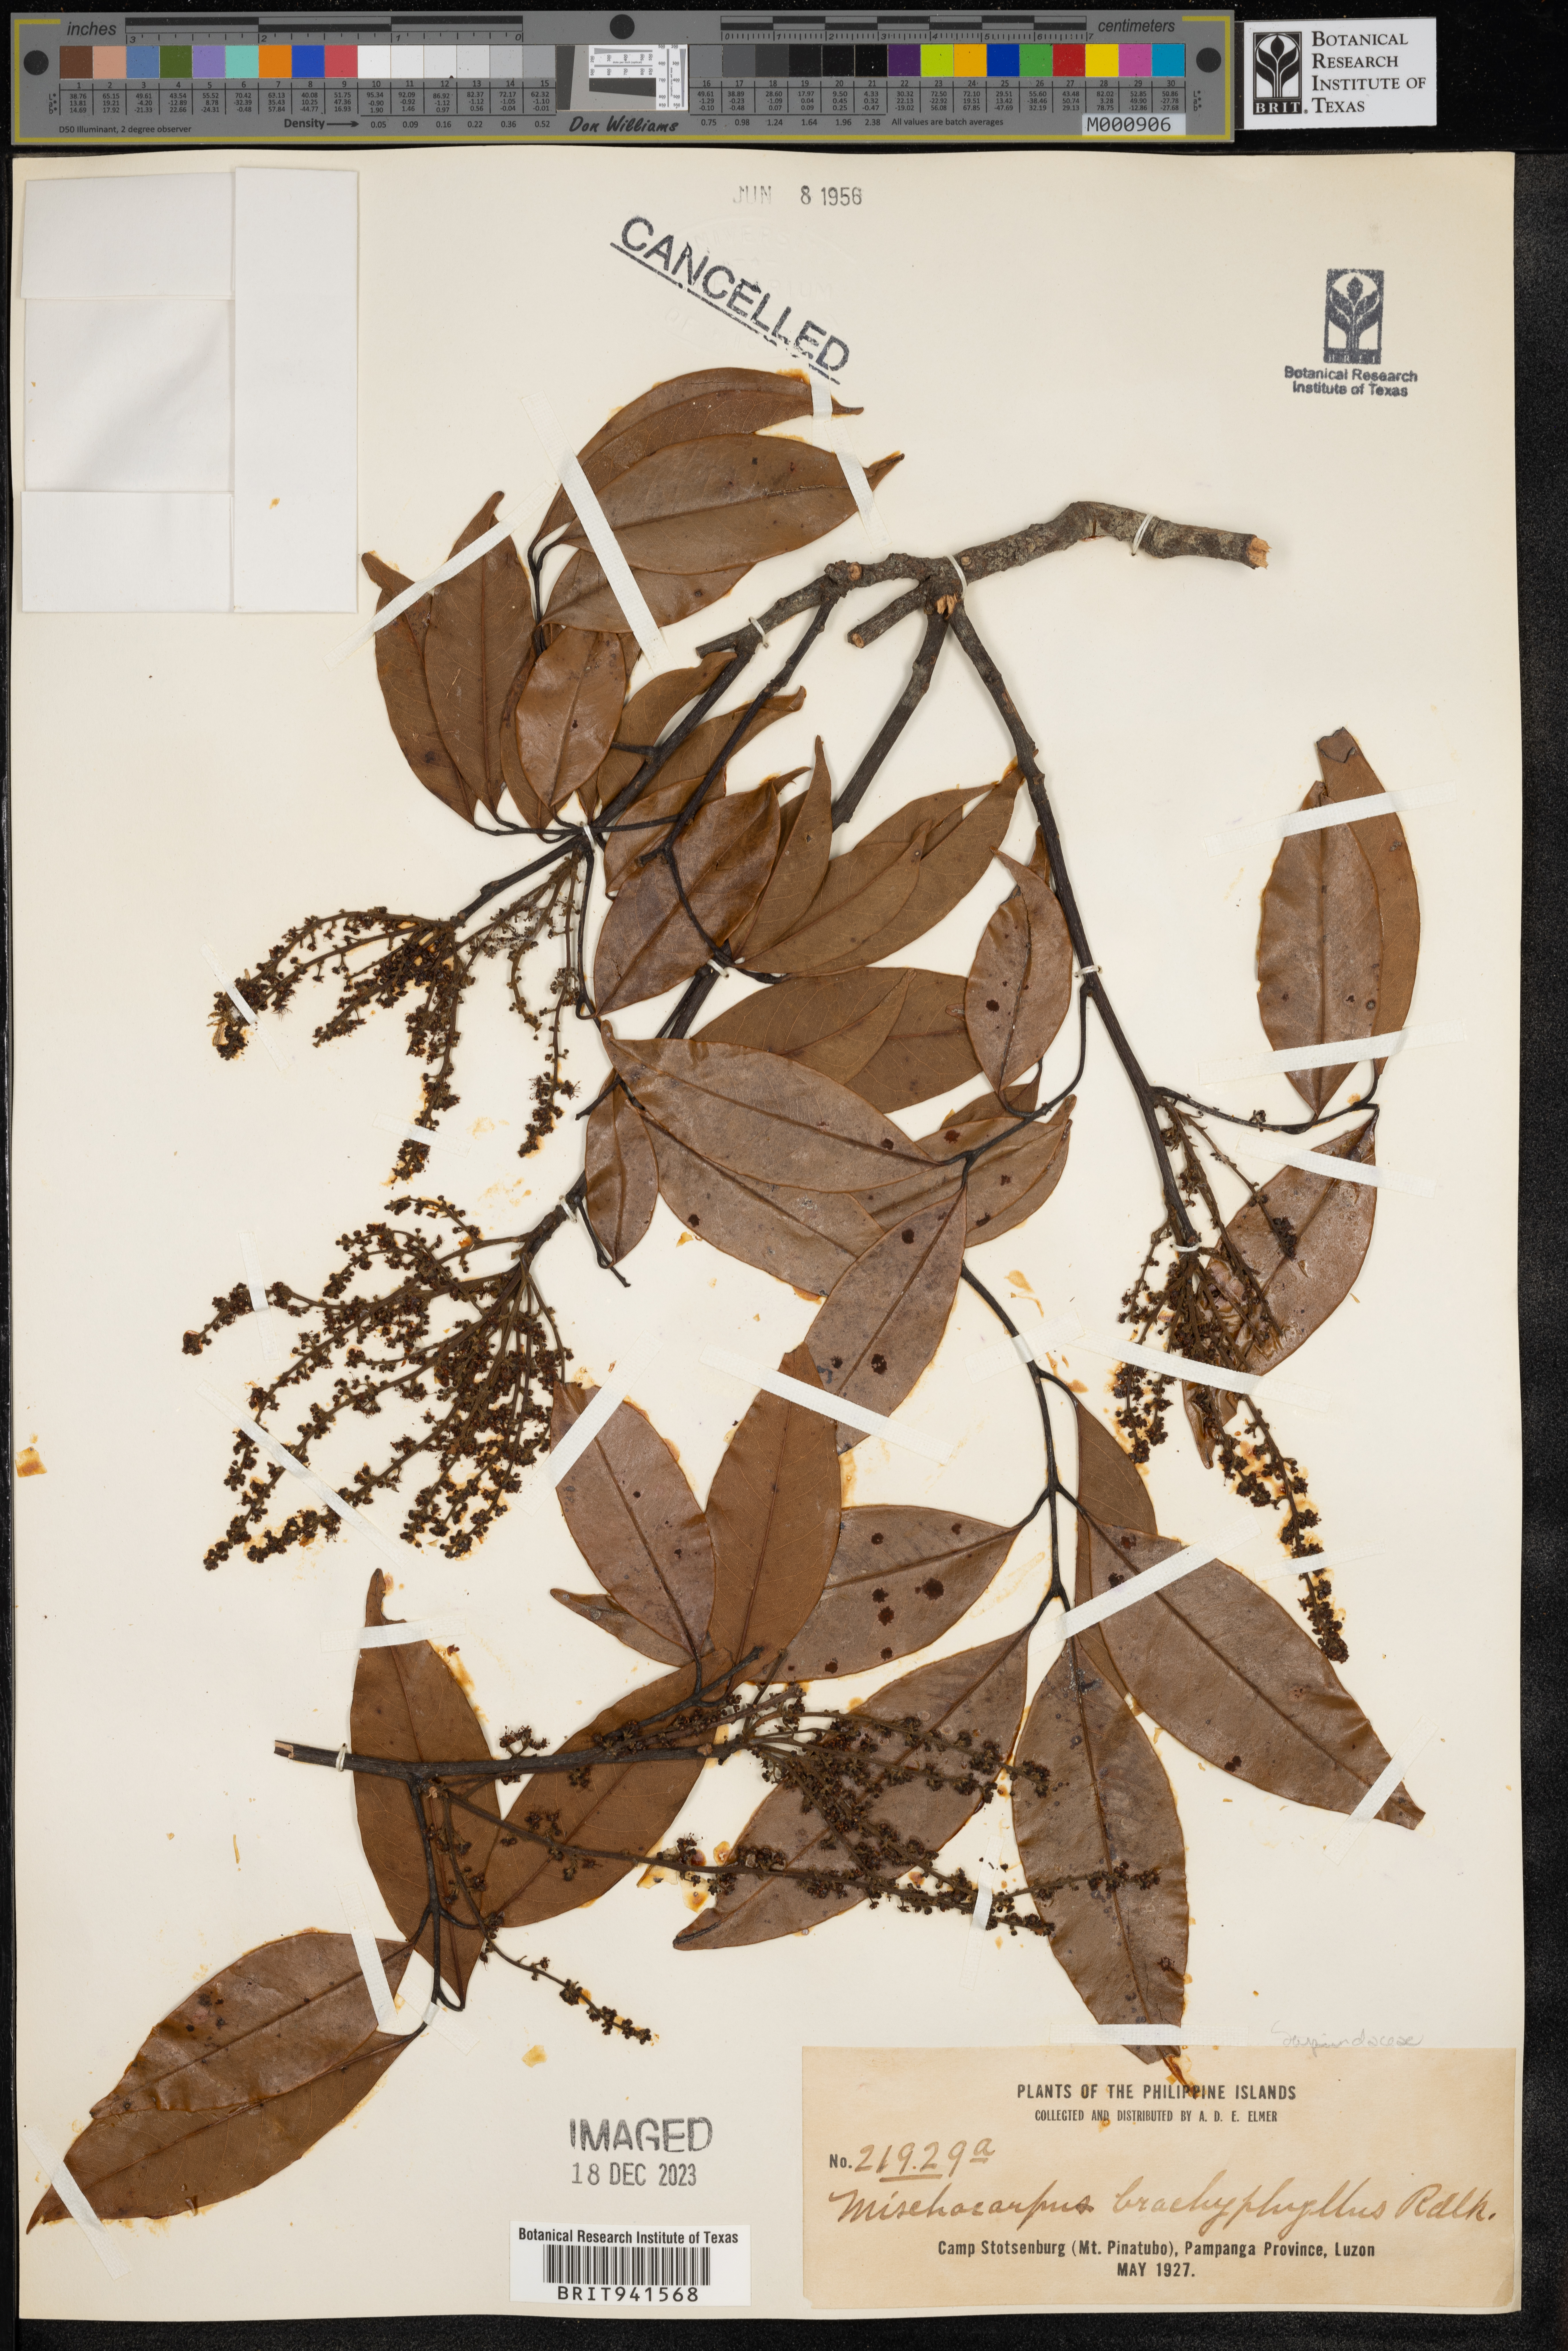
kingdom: Plantae
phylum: Tracheophyta
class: Magnoliopsida
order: Sapindales
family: Sapindaceae
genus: Mischocarpus
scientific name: Mischocarpus
